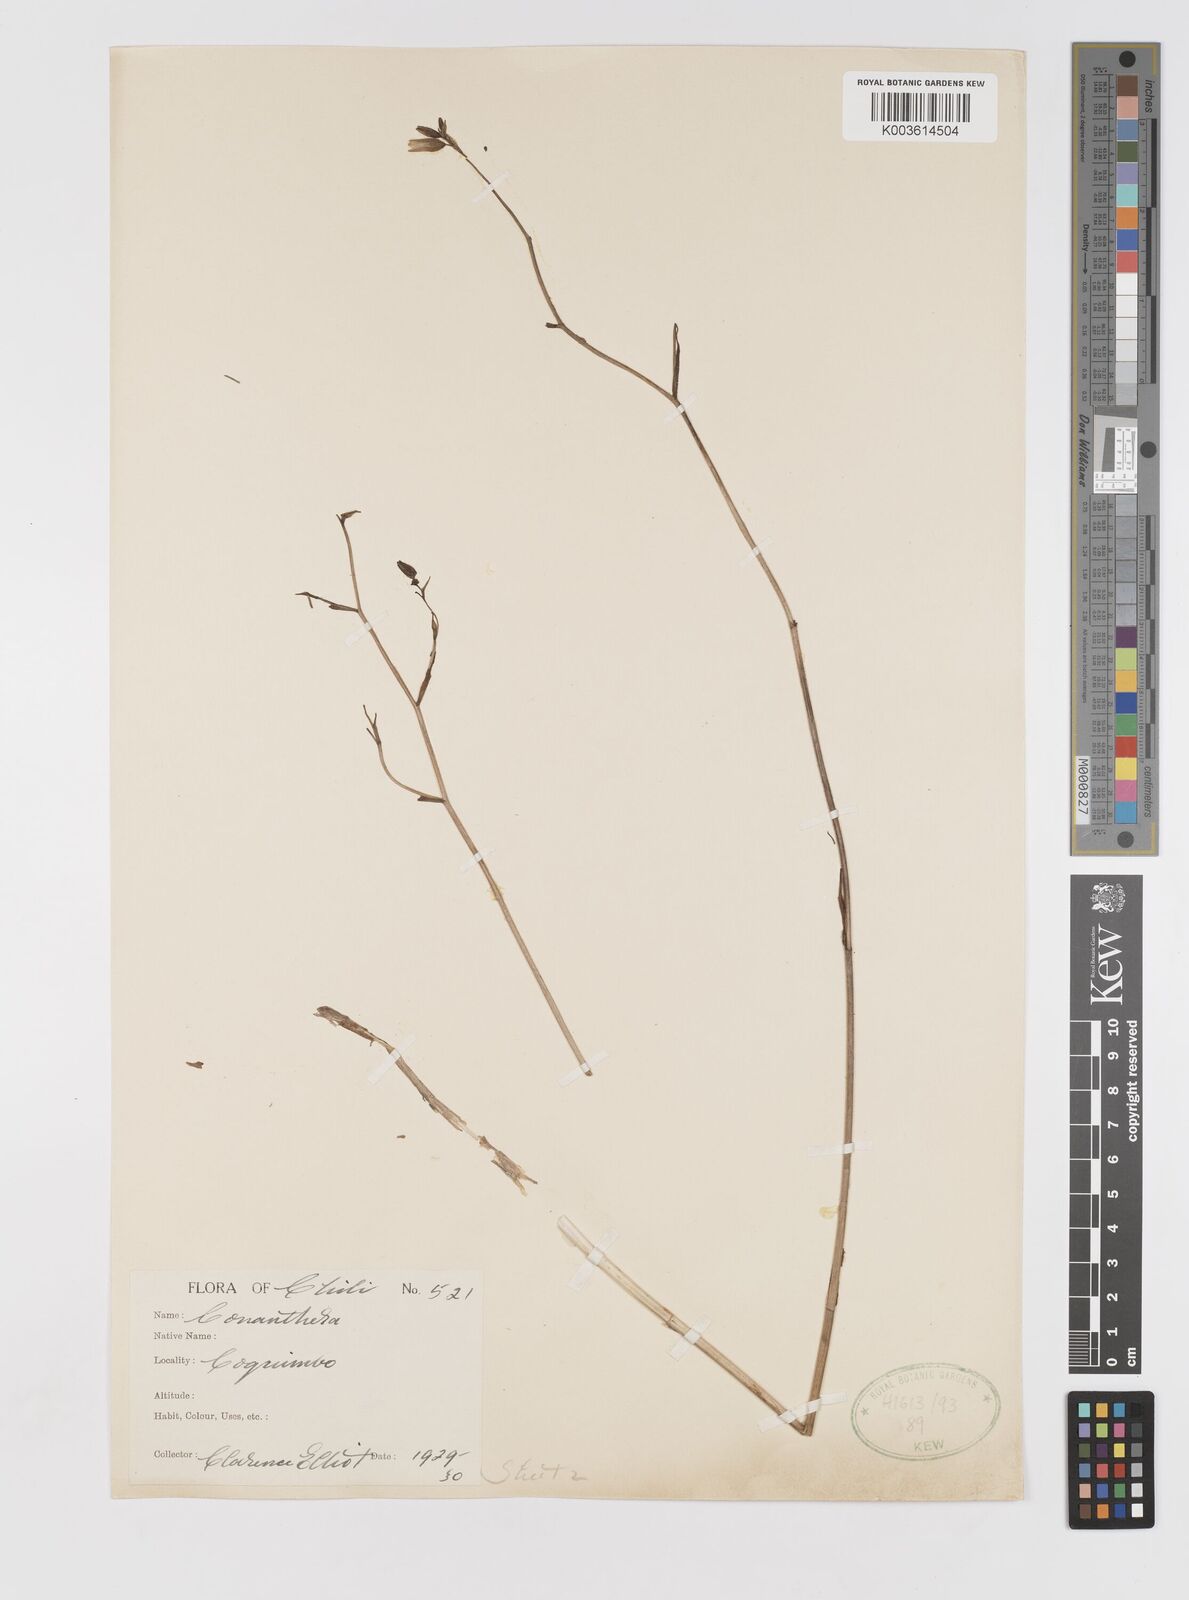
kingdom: Plantae
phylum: Tracheophyta
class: Liliopsida
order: Asparagales
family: Tecophilaeaceae
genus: Conanthera
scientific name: Conanthera campanulata
